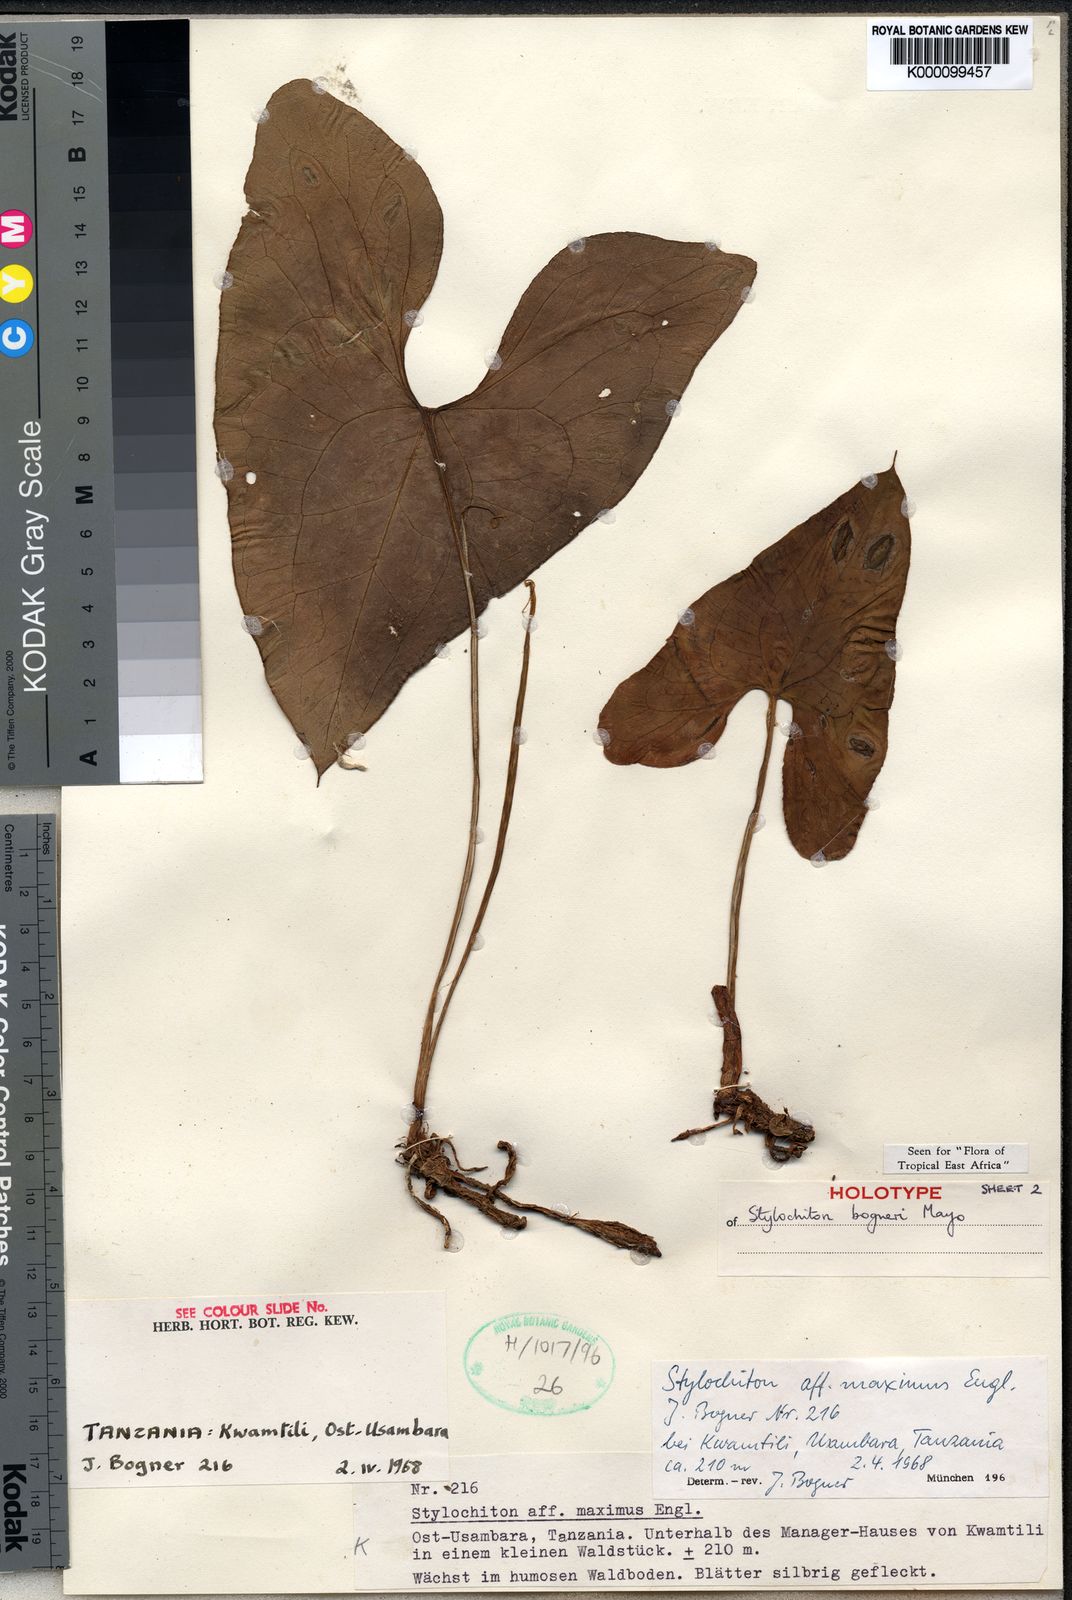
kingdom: Plantae
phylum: Tracheophyta
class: Liliopsida
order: Alismatales
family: Araceae
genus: Stylochaeton
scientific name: Stylochaeton bogneri
